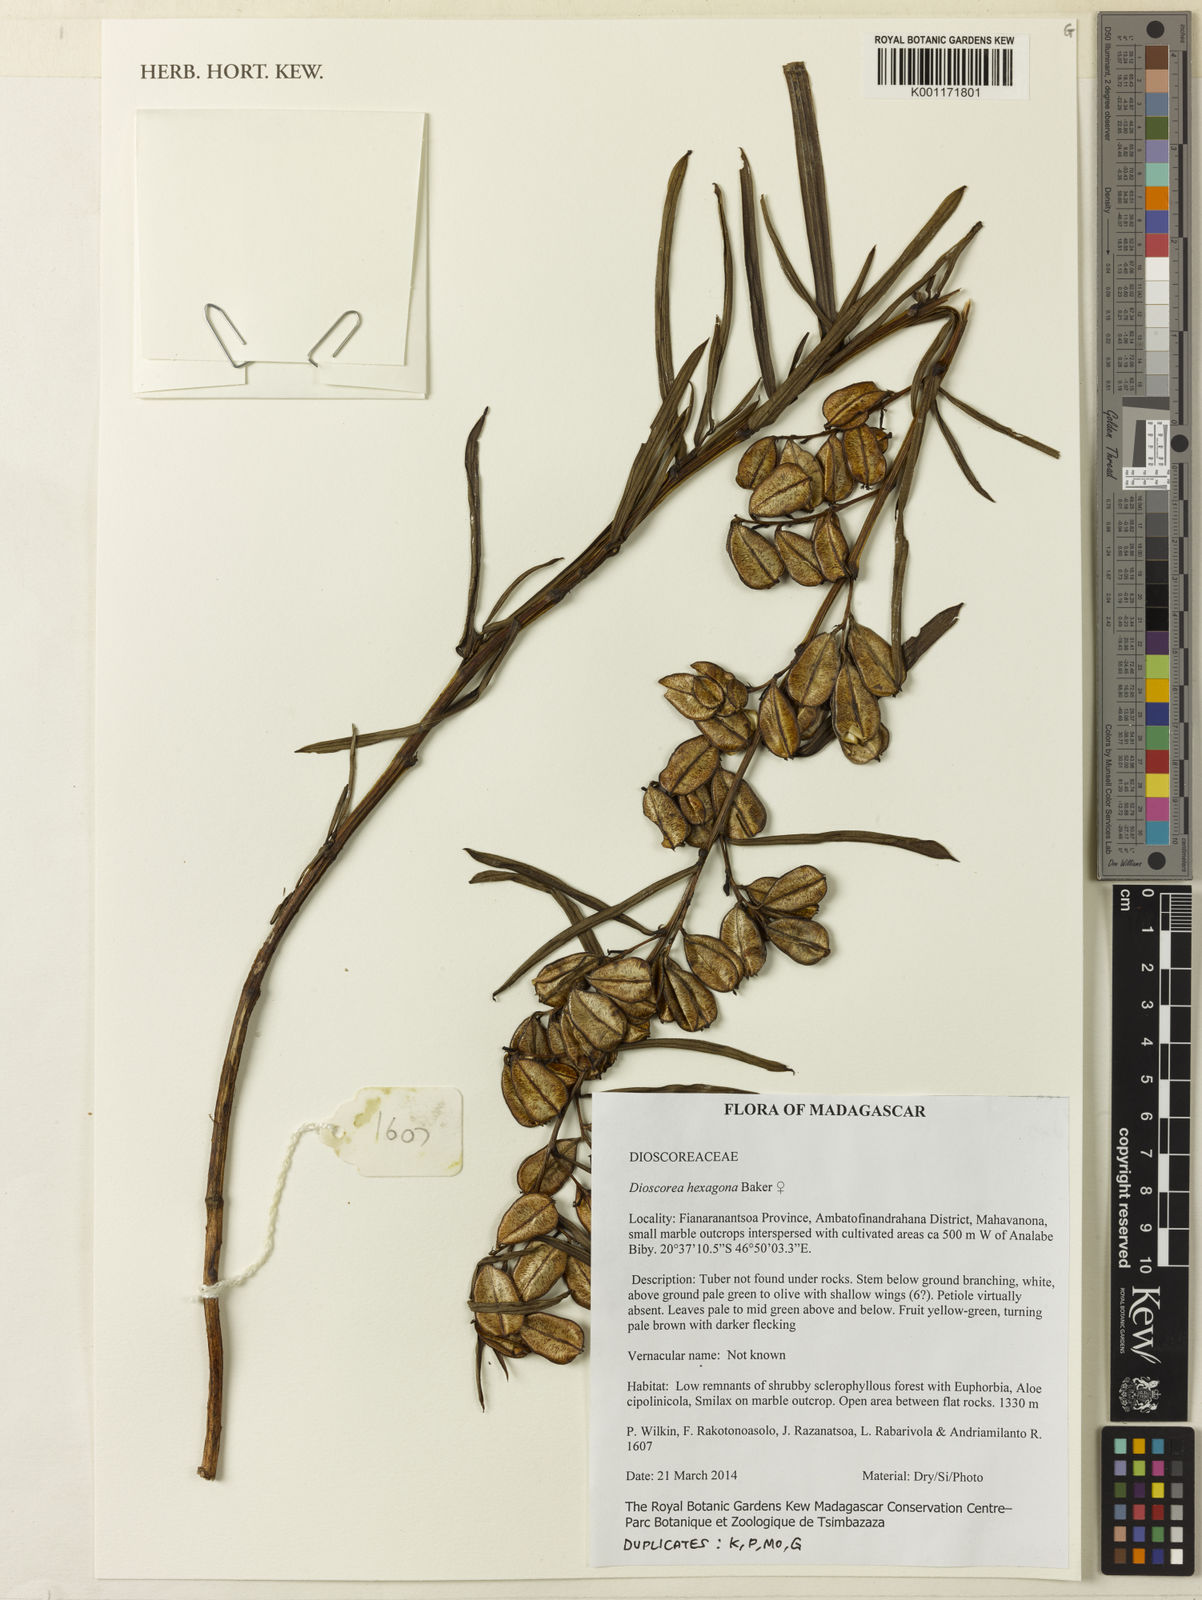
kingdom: Plantae
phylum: Tracheophyta
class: Liliopsida
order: Dioscoreales
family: Dioscoreaceae
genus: Dioscorea
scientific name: Dioscorea hexagona
